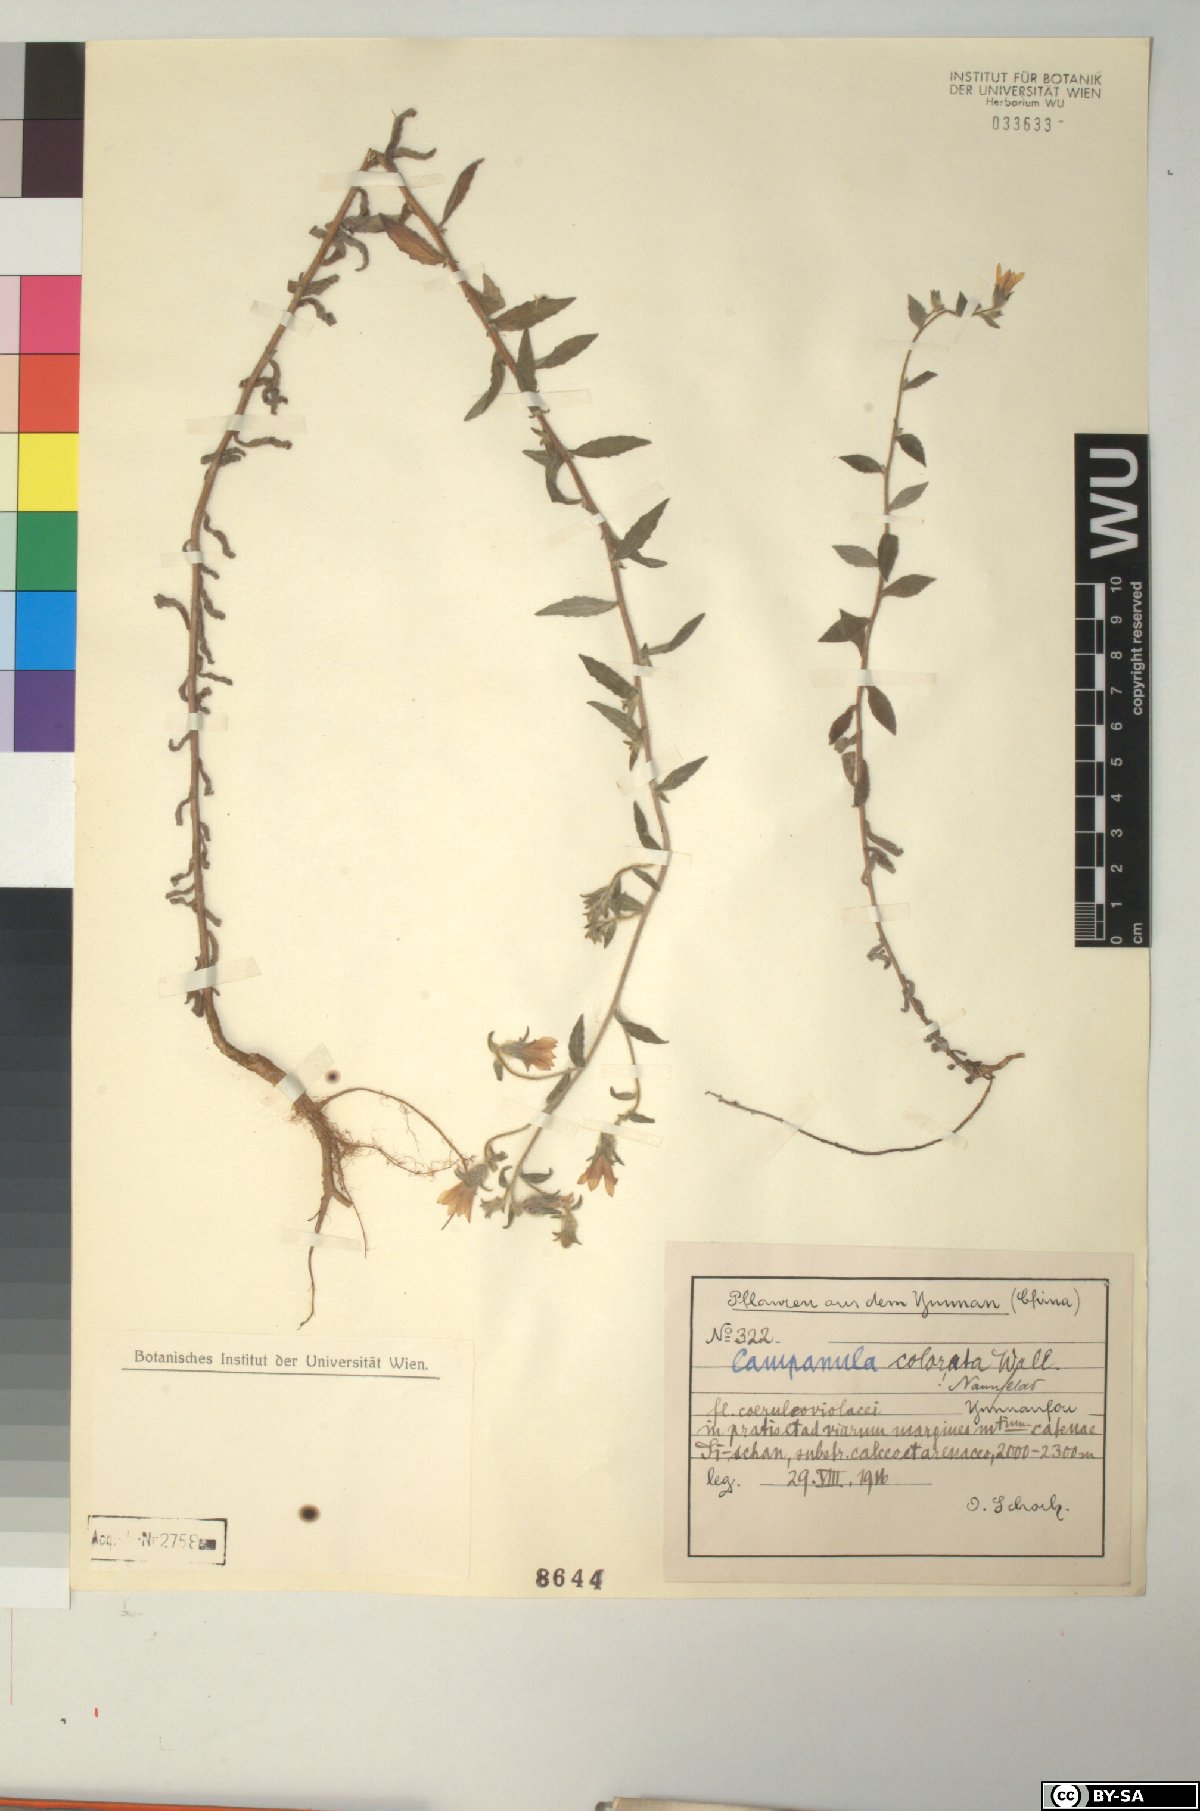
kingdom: Plantae
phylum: Tracheophyta
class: Magnoliopsida
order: Asterales
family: Campanulaceae
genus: Campanula
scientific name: Campanula pallida
